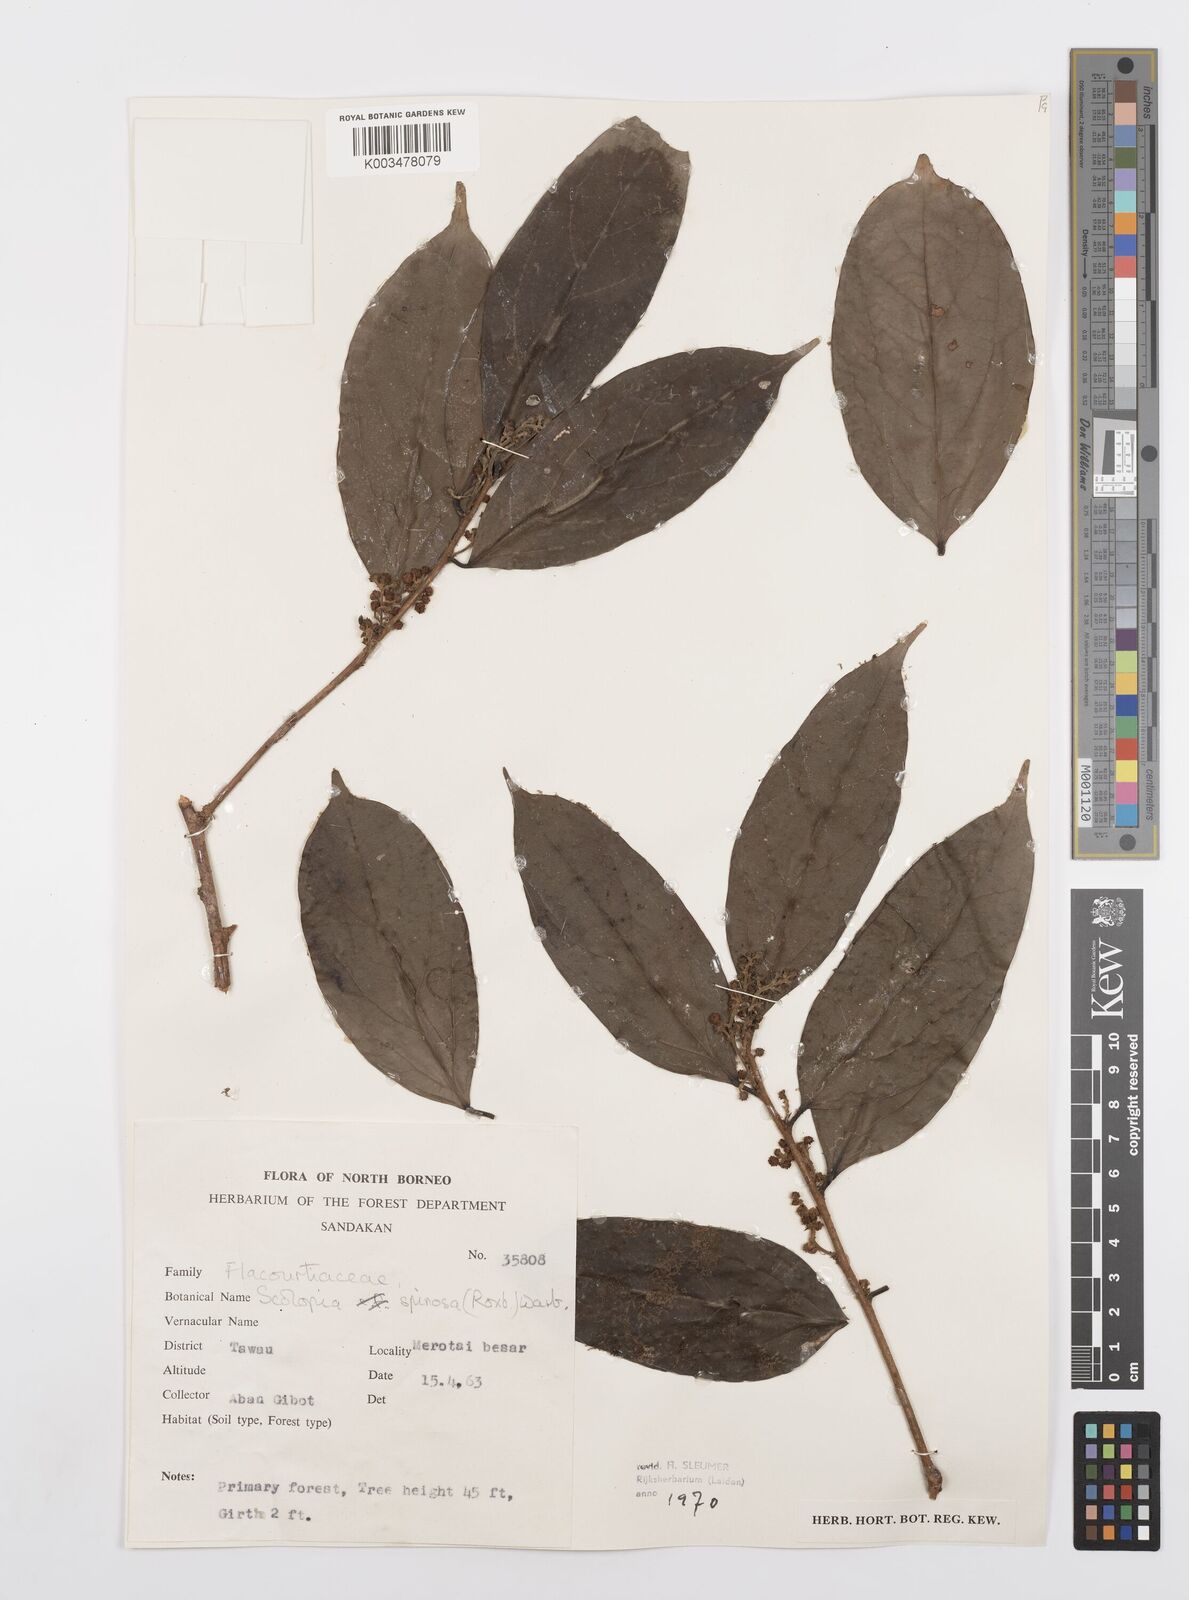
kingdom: Plantae
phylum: Tracheophyta
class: Magnoliopsida
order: Malpighiales
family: Salicaceae
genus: Scolopia
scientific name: Scolopia spinosa
